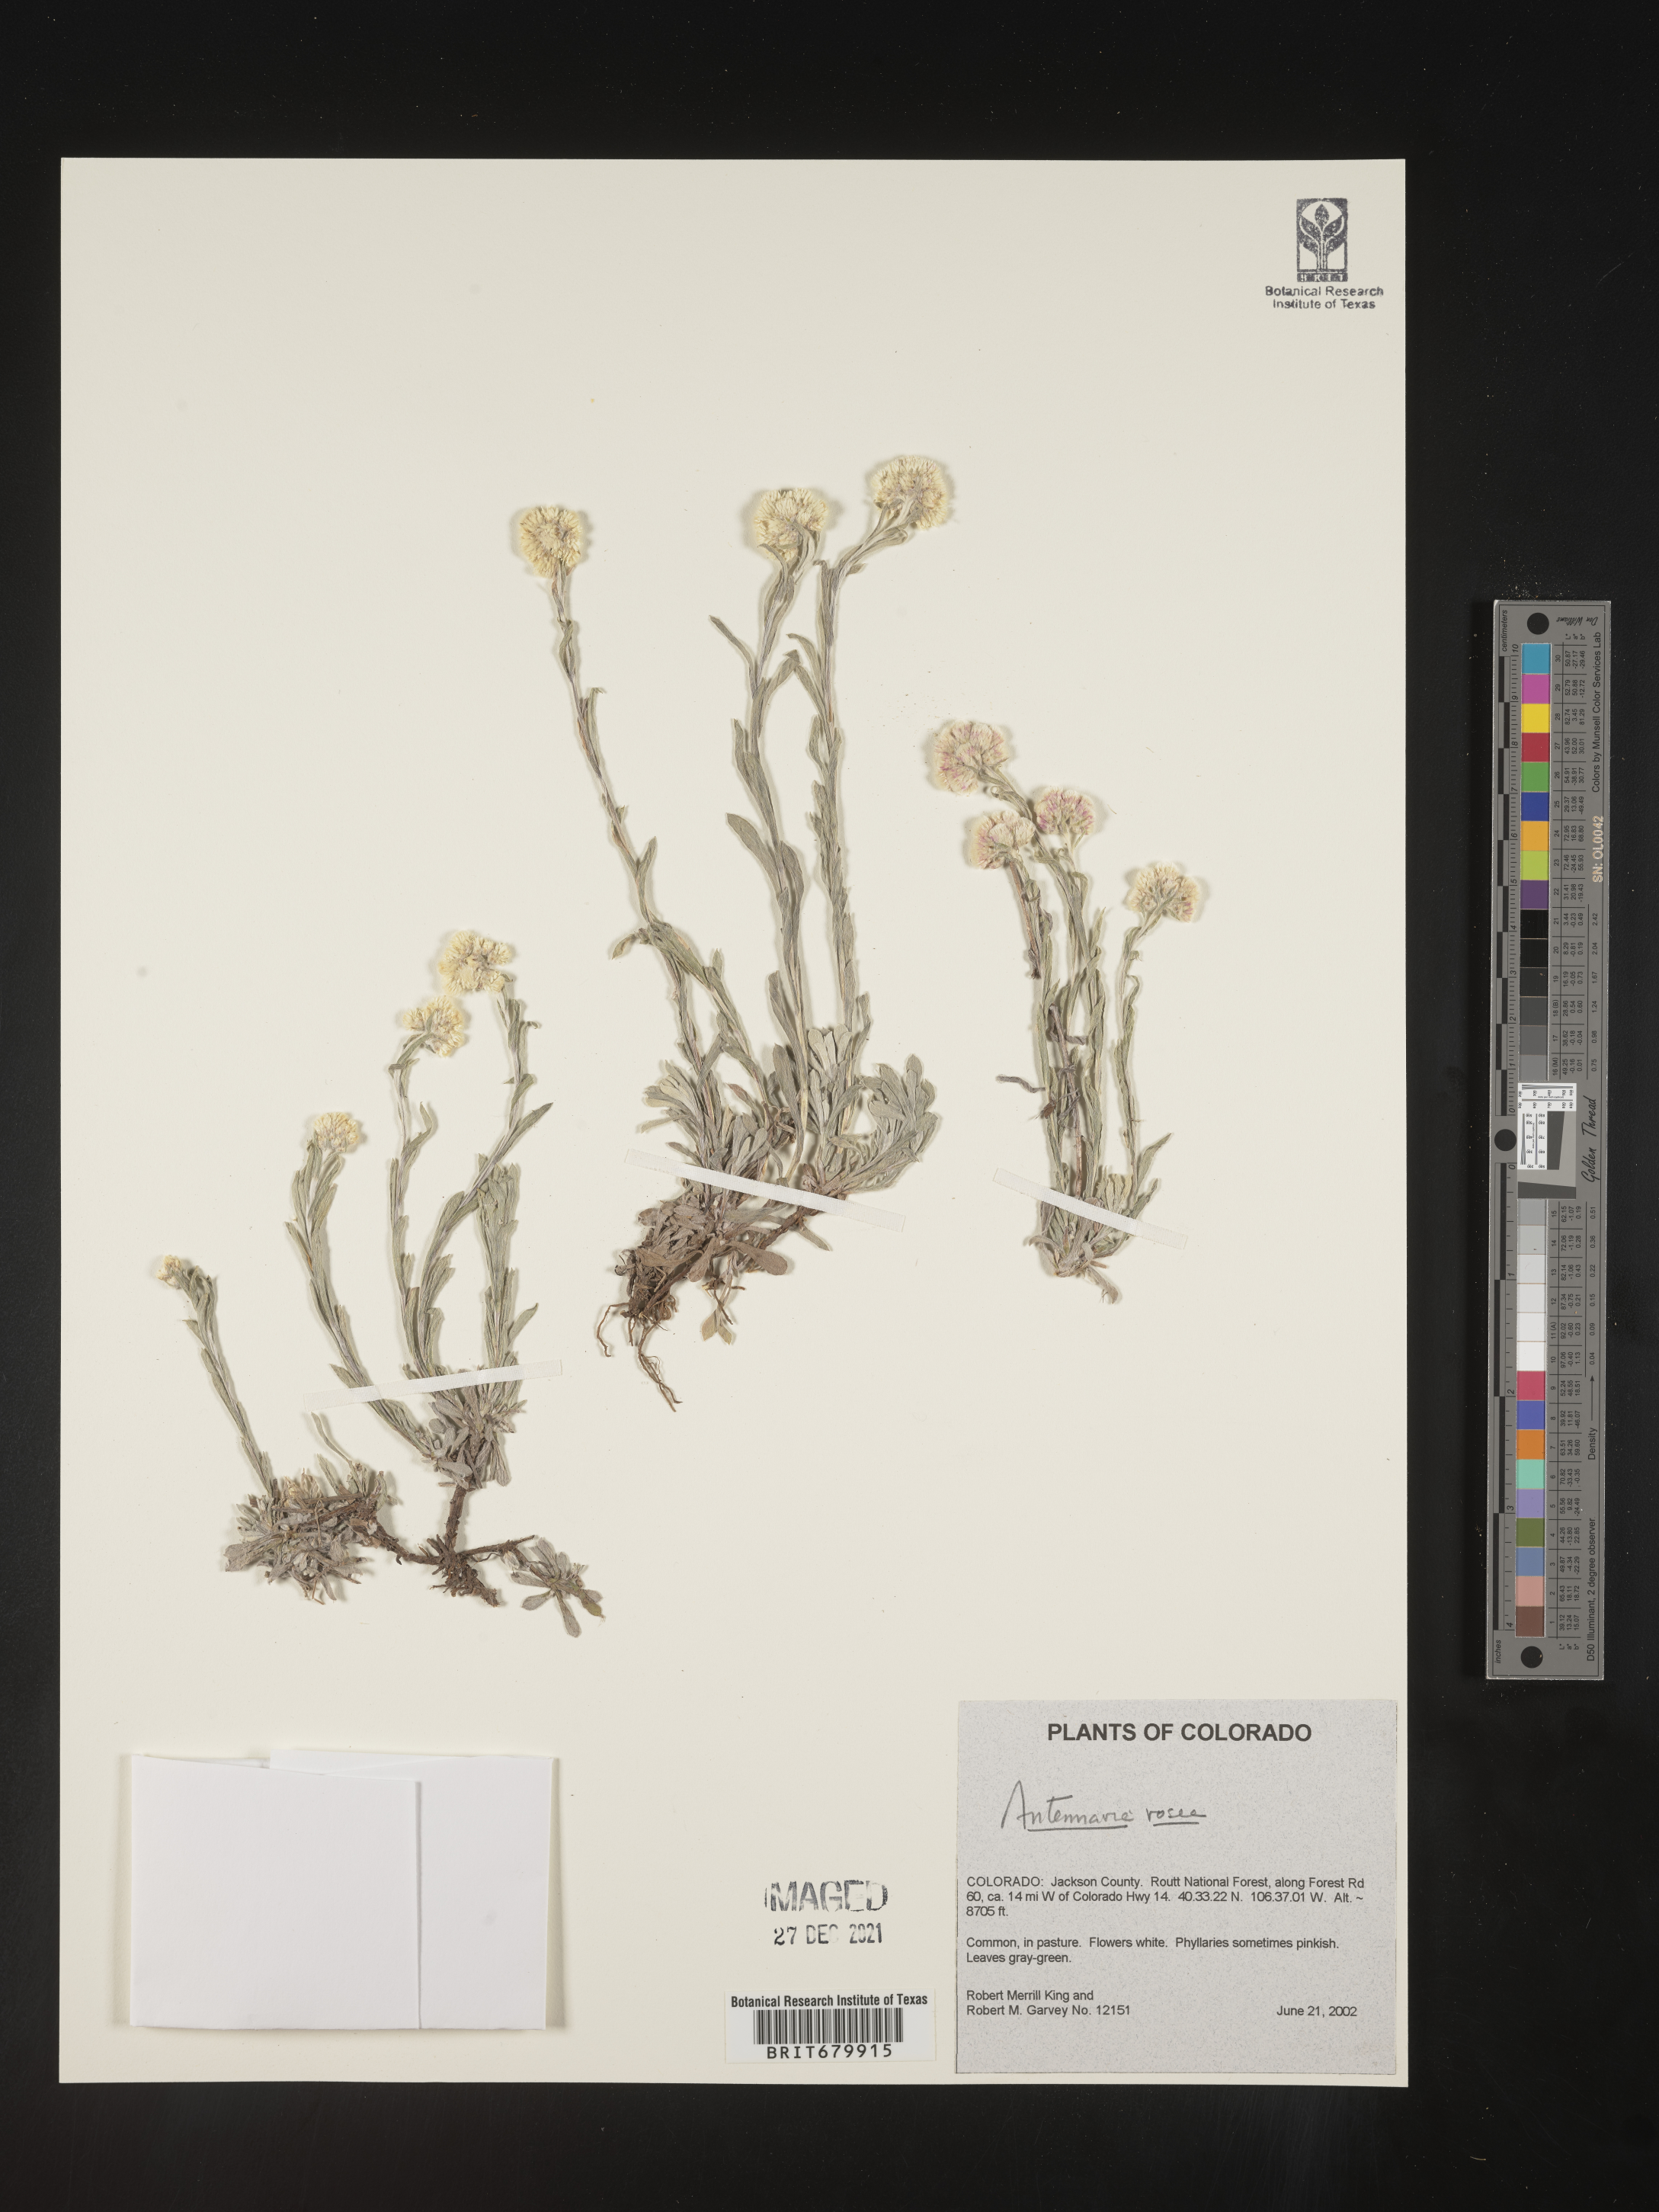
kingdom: Plantae
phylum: Tracheophyta
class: Magnoliopsida
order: Asterales
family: Asteraceae
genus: Antennaria
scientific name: Antennaria rosea
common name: Rosy pussytoes
